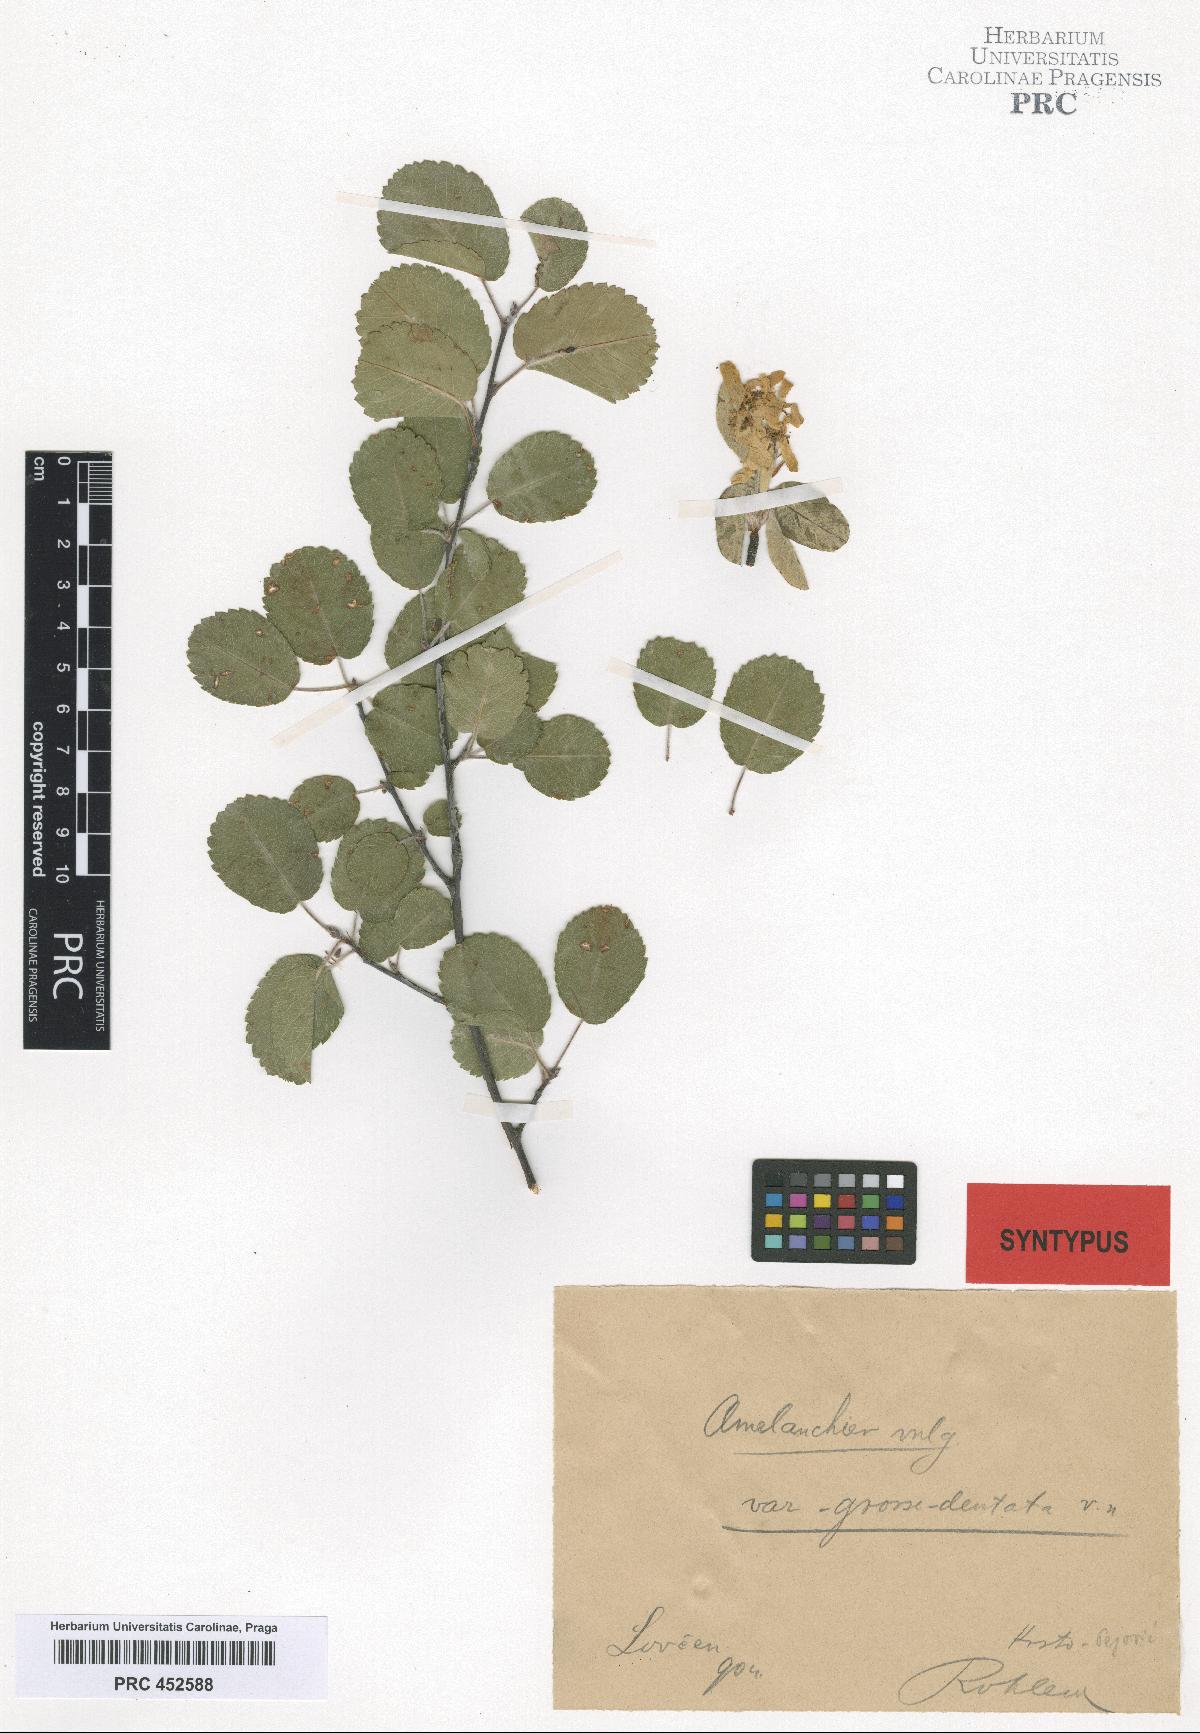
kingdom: Plantae
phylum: Tracheophyta
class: Magnoliopsida
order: Rosales
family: Rosaceae
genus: Amelanchier
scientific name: Amelanchier ovalis
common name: Serviceberry
